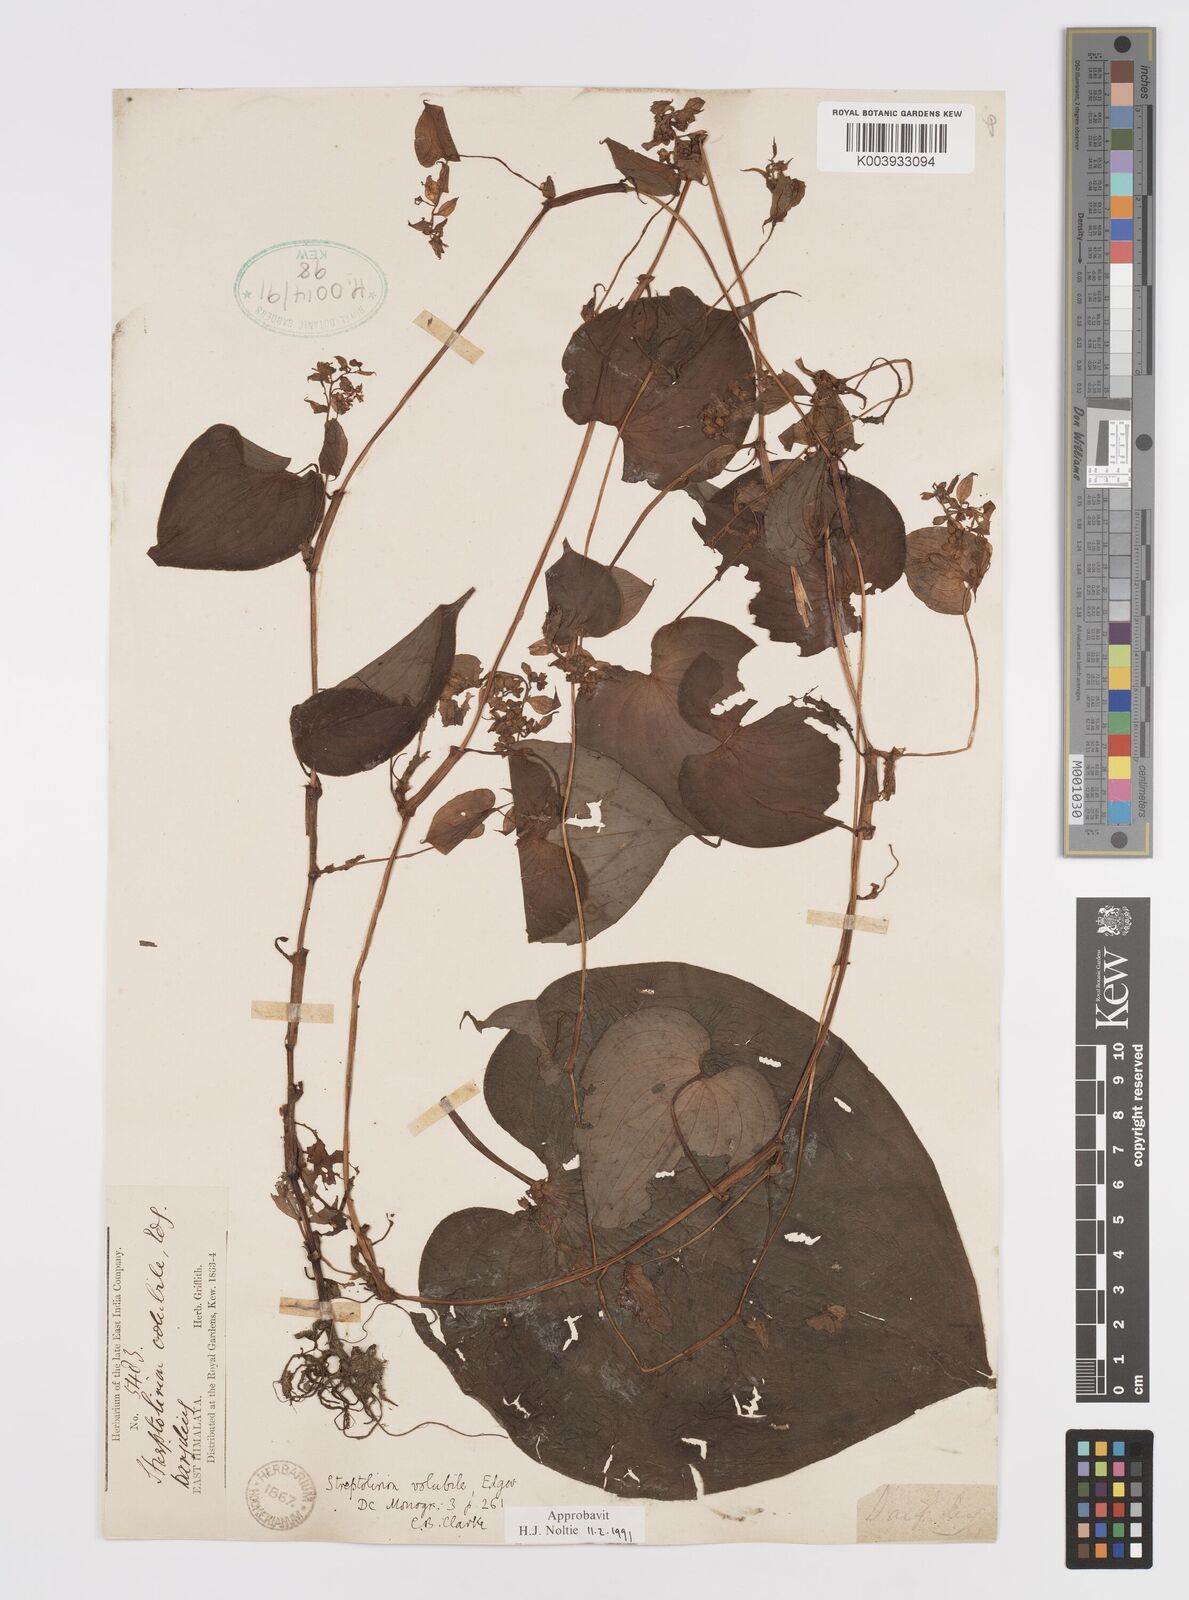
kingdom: Plantae
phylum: Tracheophyta
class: Liliopsida
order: Commelinales
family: Commelinaceae
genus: Streptolirion
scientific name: Streptolirion volubile
